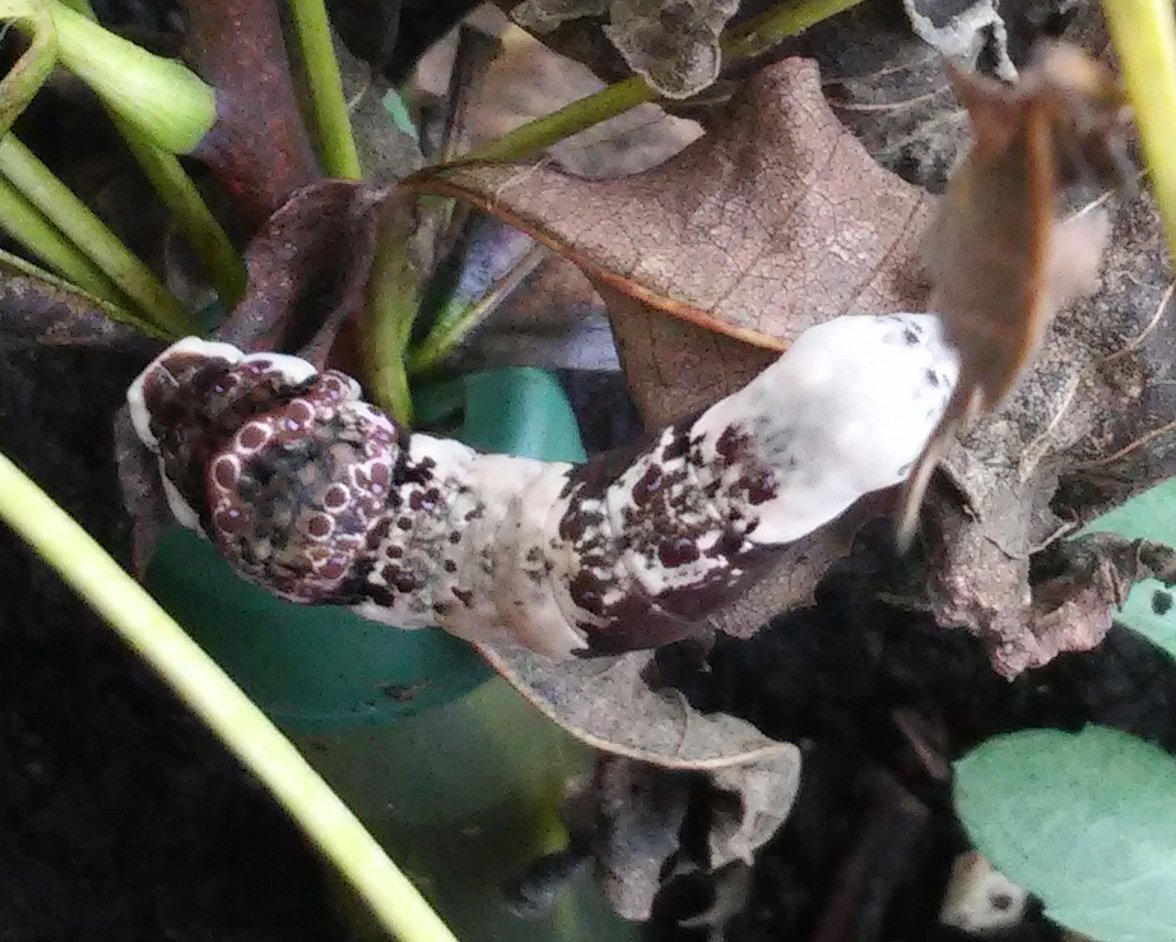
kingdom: Animalia
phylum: Arthropoda
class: Insecta
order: Lepidoptera
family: Papilionidae
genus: Papilio
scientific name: Papilio cresphontes
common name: Eastern Giant Swallowtail
